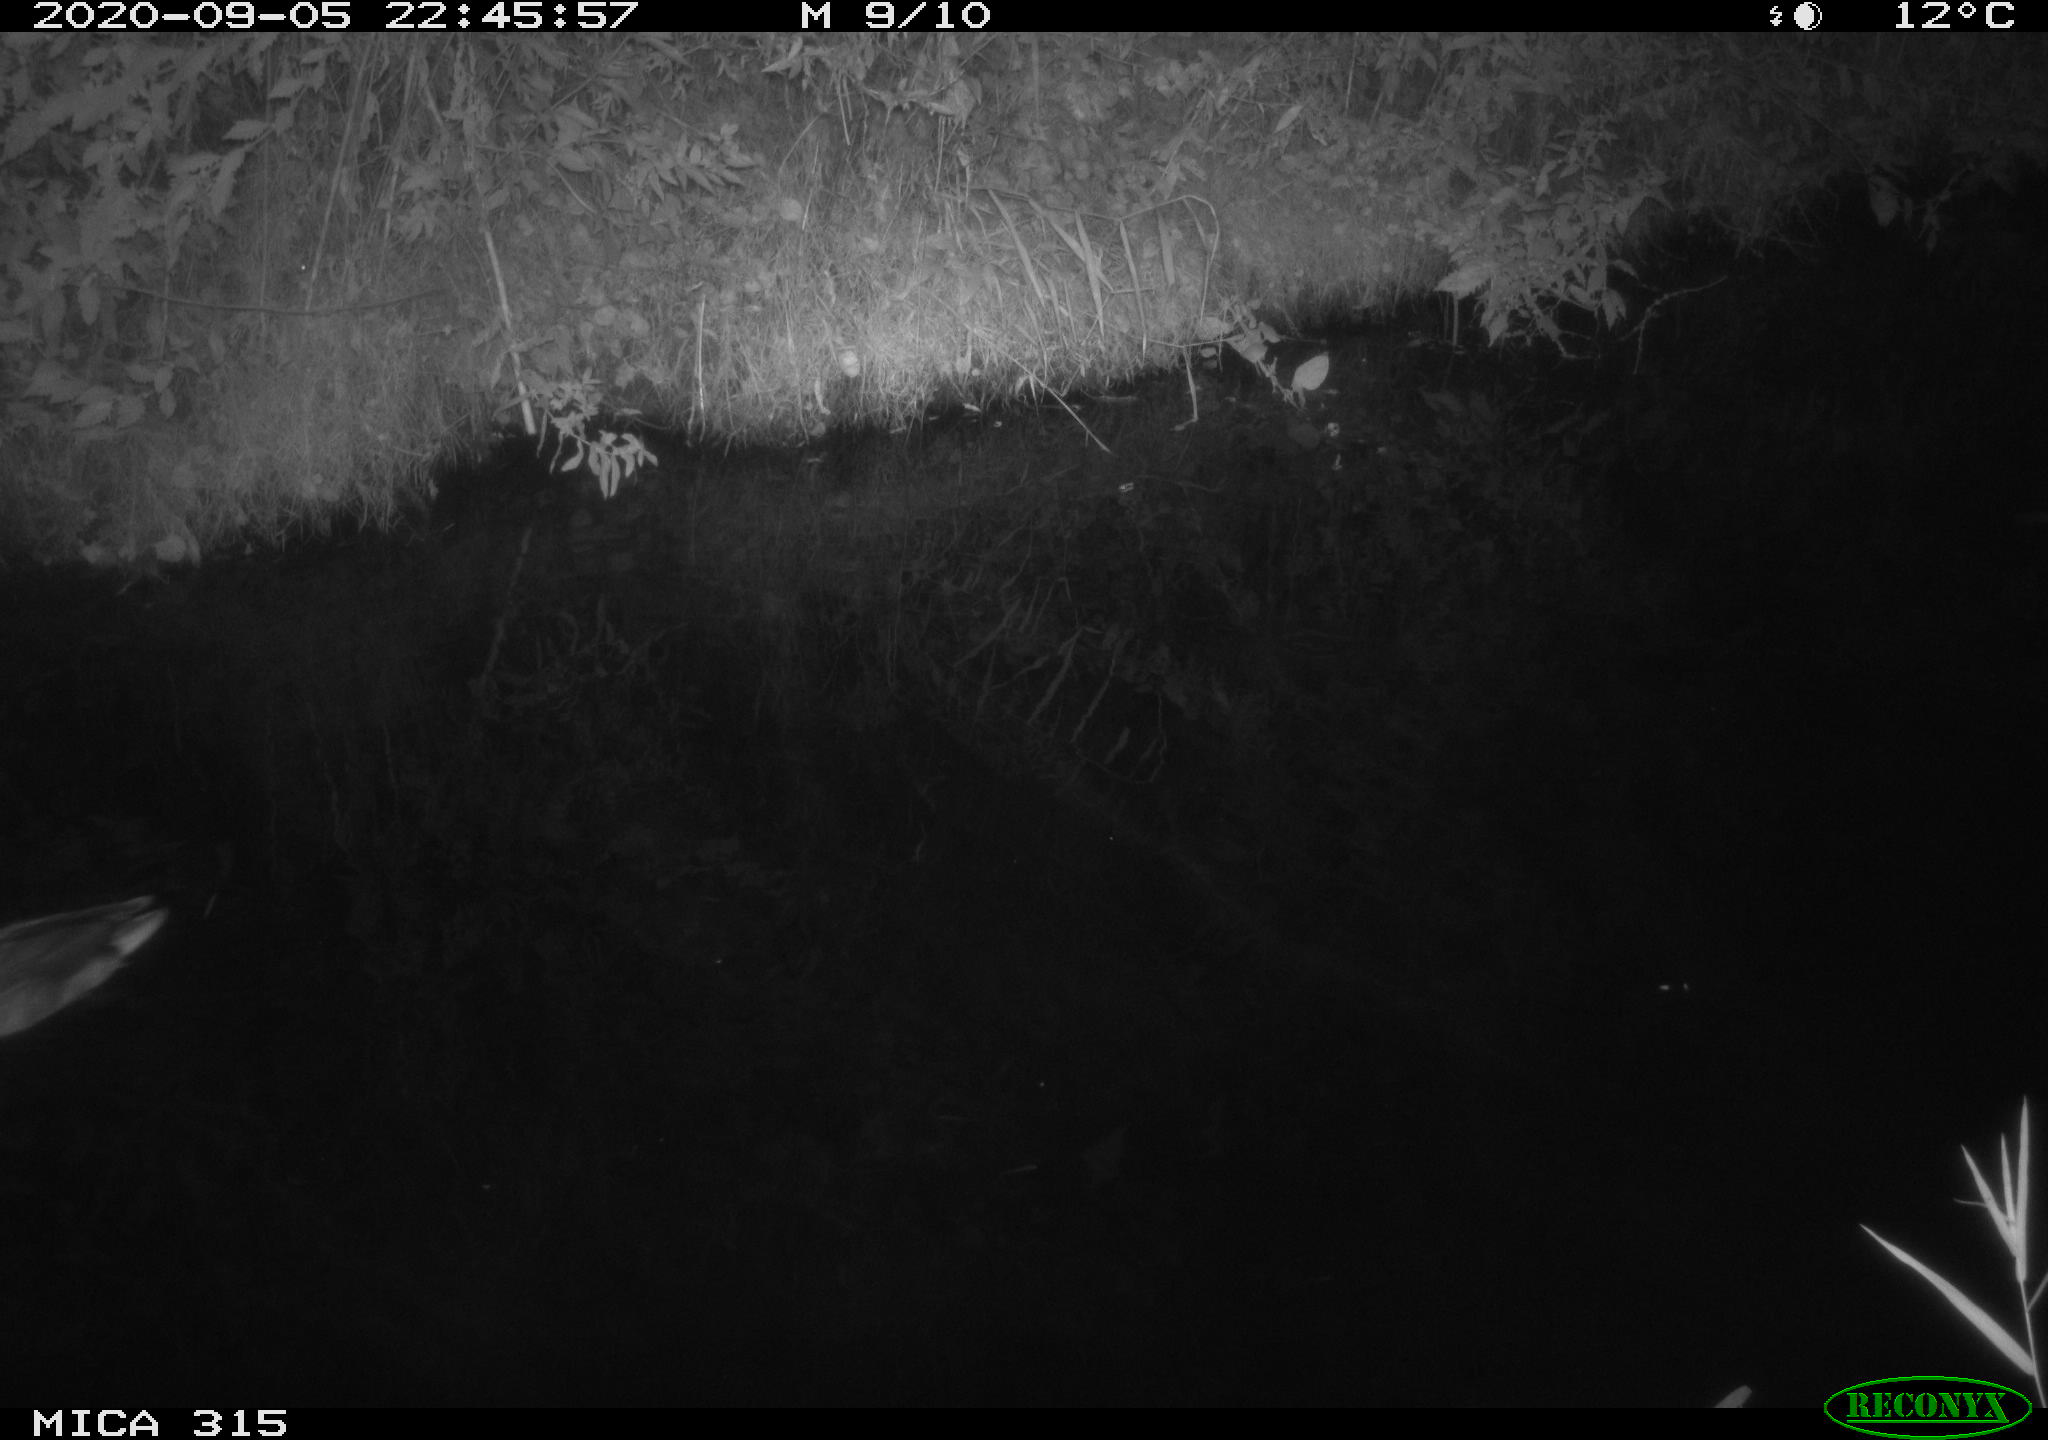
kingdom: Animalia
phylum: Chordata
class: Aves
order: Anseriformes
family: Anatidae
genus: Anas
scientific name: Anas platyrhynchos
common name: Mallard
